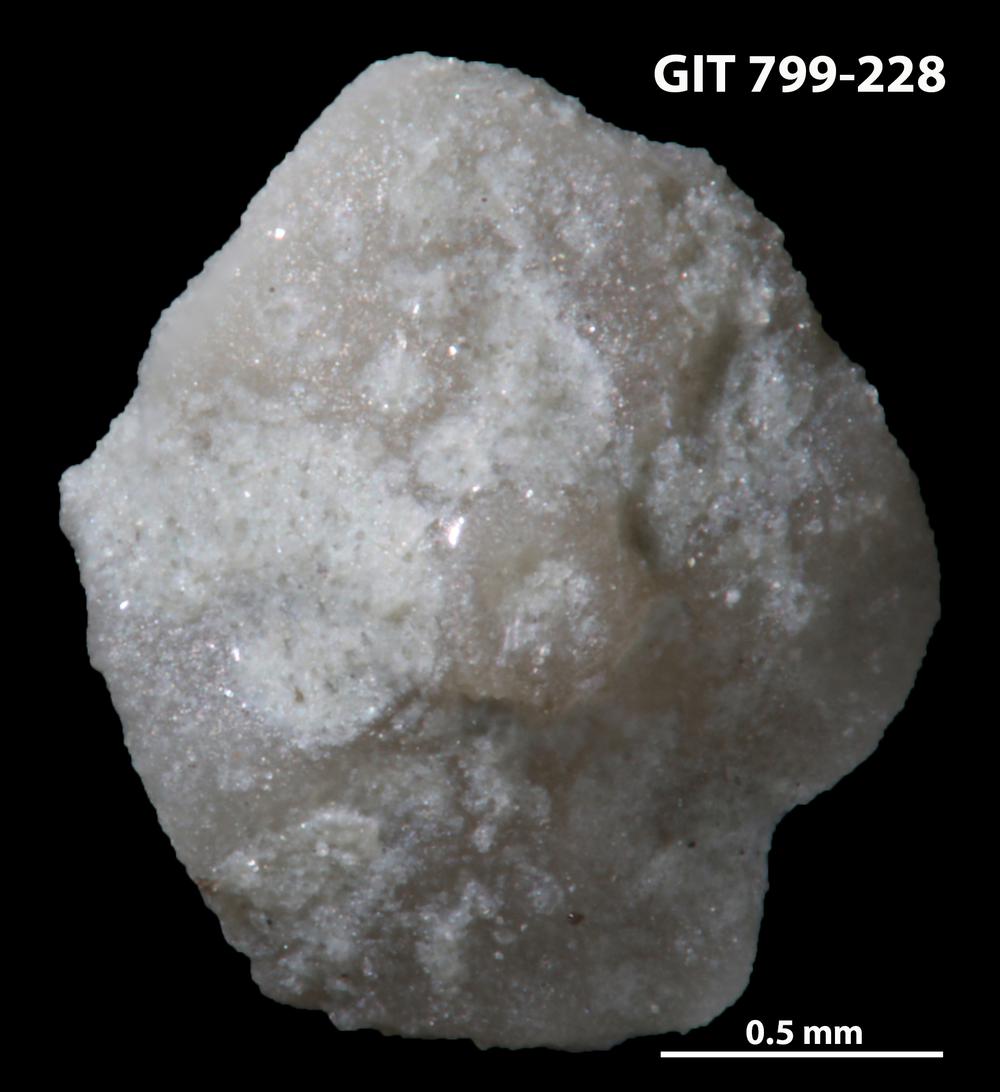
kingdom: Animalia
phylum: Echinodermata
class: Echinoidea
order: Bothriocidaroida
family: Bothriocidaridae
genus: Neobothriocidaris
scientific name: Neobothriocidaris
